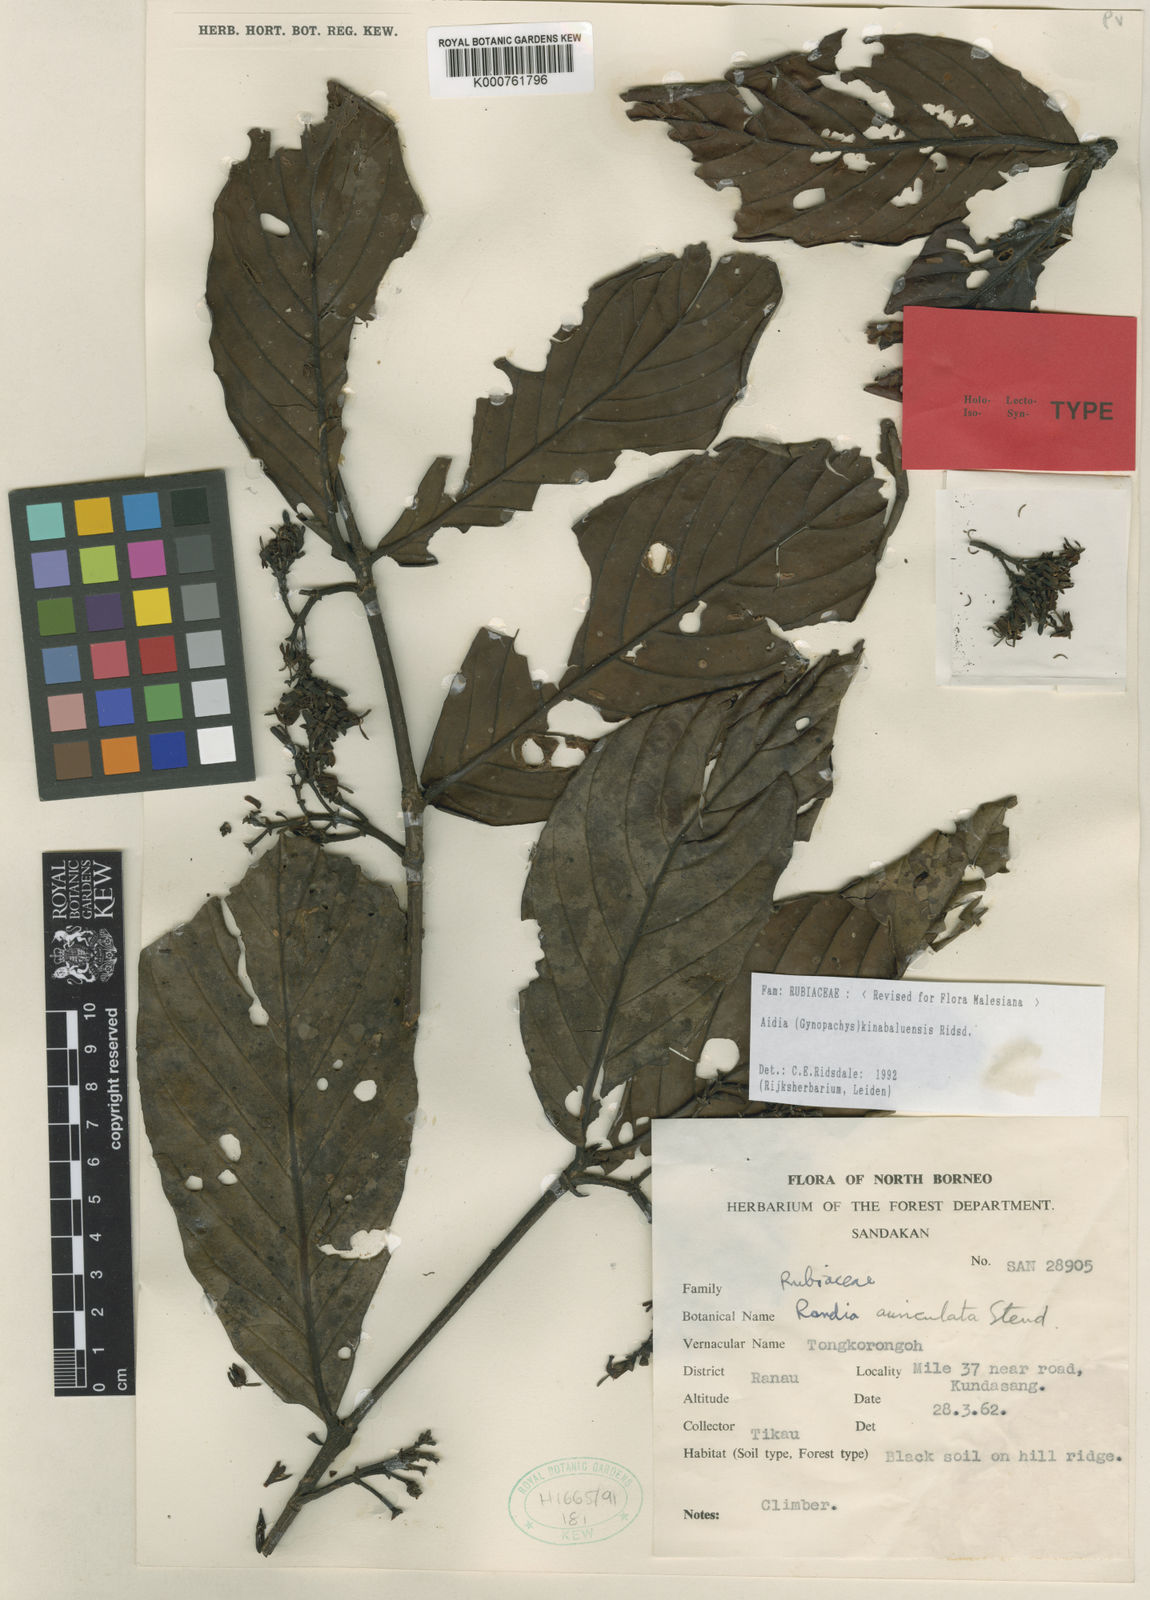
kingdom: Plantae
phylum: Tracheophyta
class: Magnoliopsida
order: Gentianales
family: Rubiaceae
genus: Aidia
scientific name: Aidia auriculata
